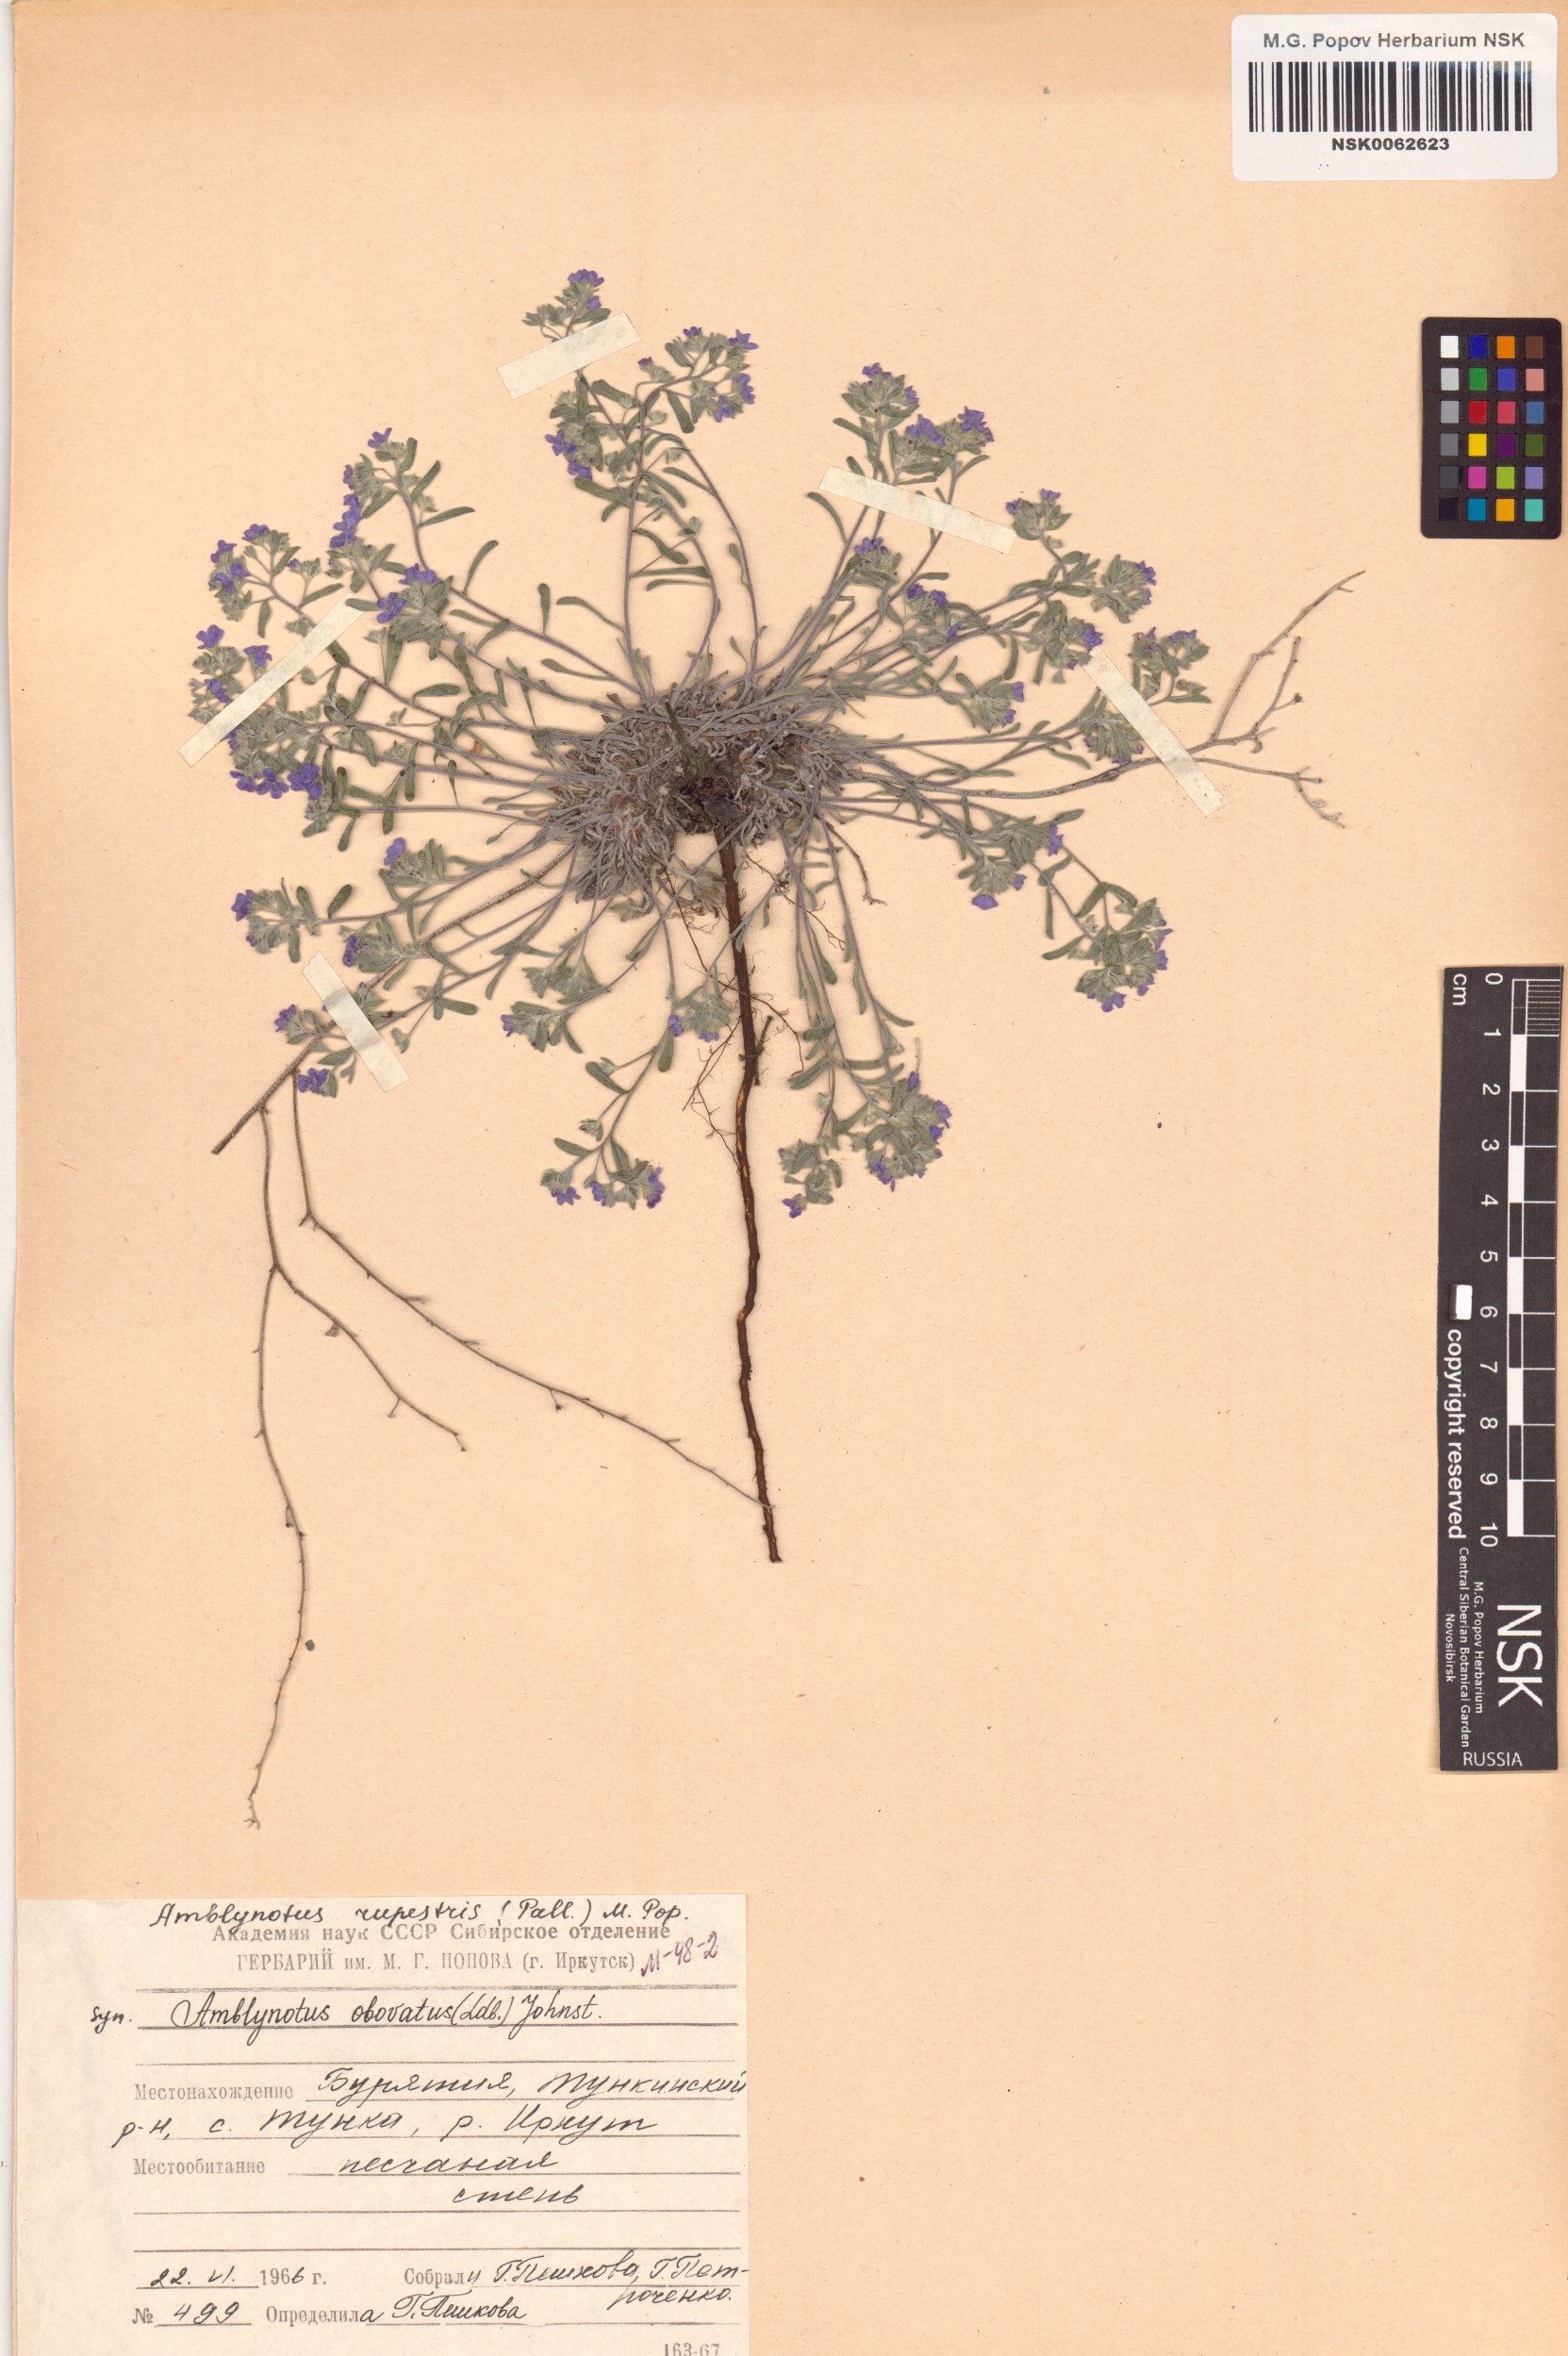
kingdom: Plantae
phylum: Tracheophyta
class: Magnoliopsida
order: Boraginales
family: Boraginaceae
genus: Eritrichium
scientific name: Eritrichium rupestre
